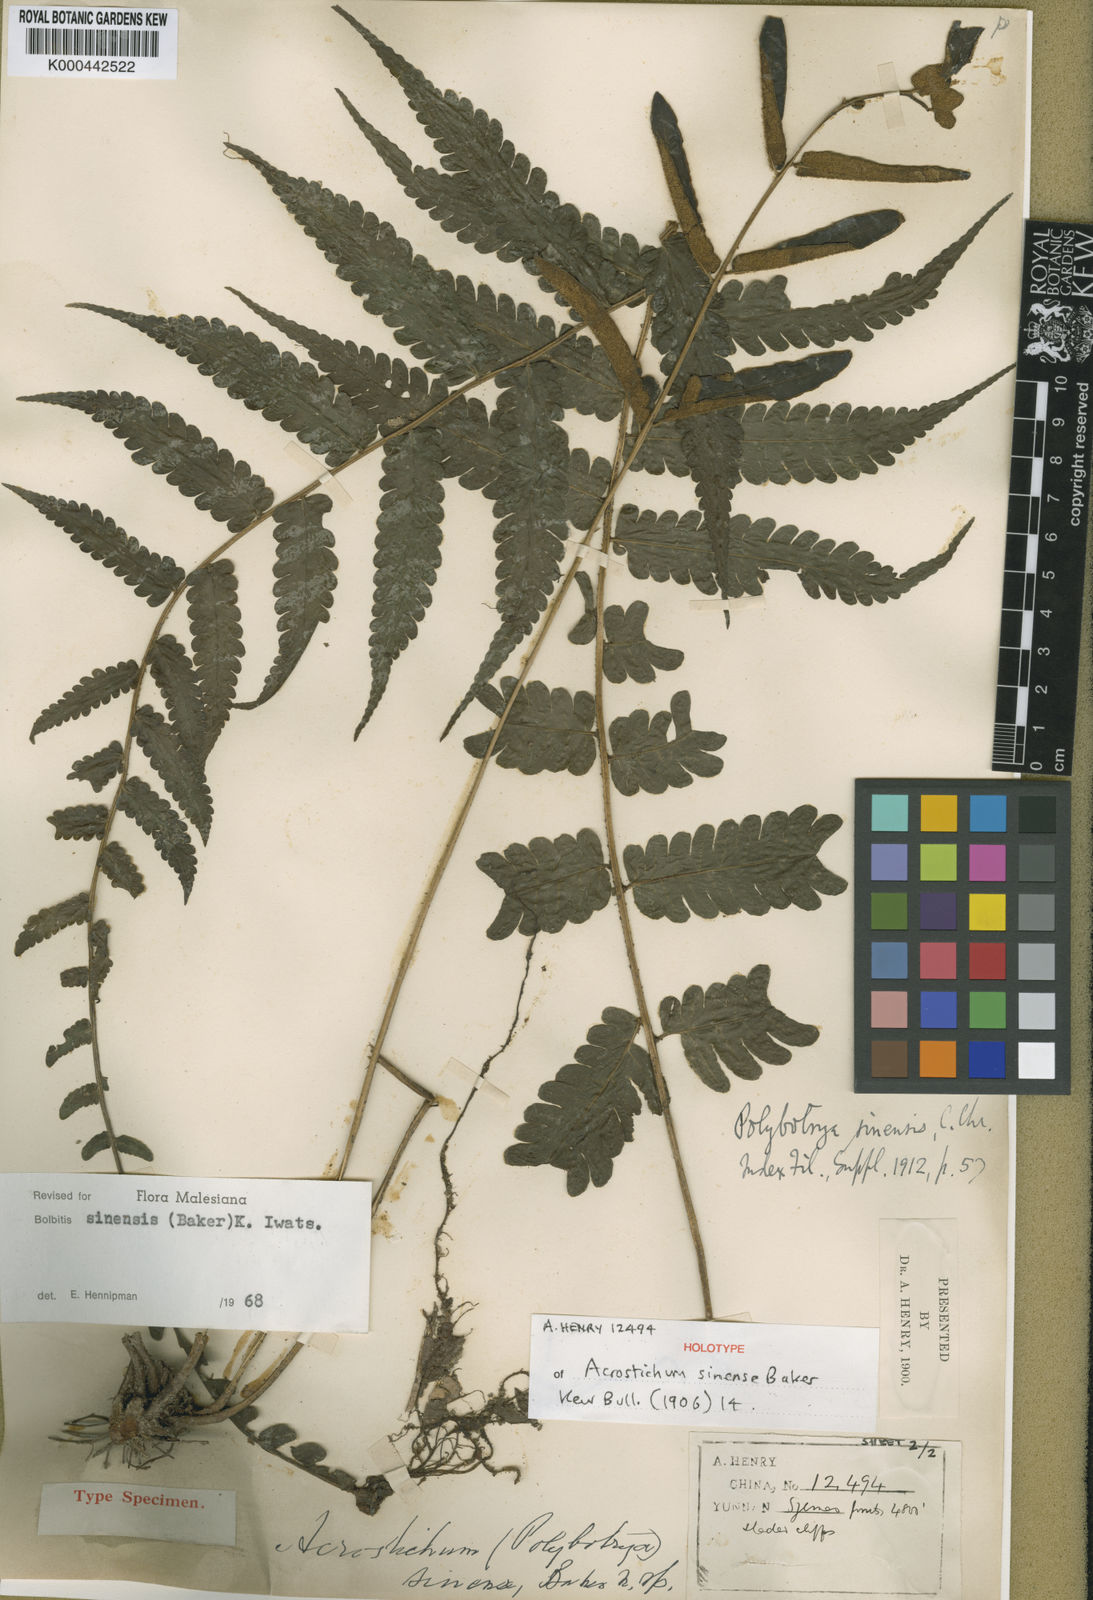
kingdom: Plantae
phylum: Tracheophyta
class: Polypodiopsida
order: Polypodiales
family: Dryopteridaceae
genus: Bolbitis
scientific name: Bolbitis sinensis
